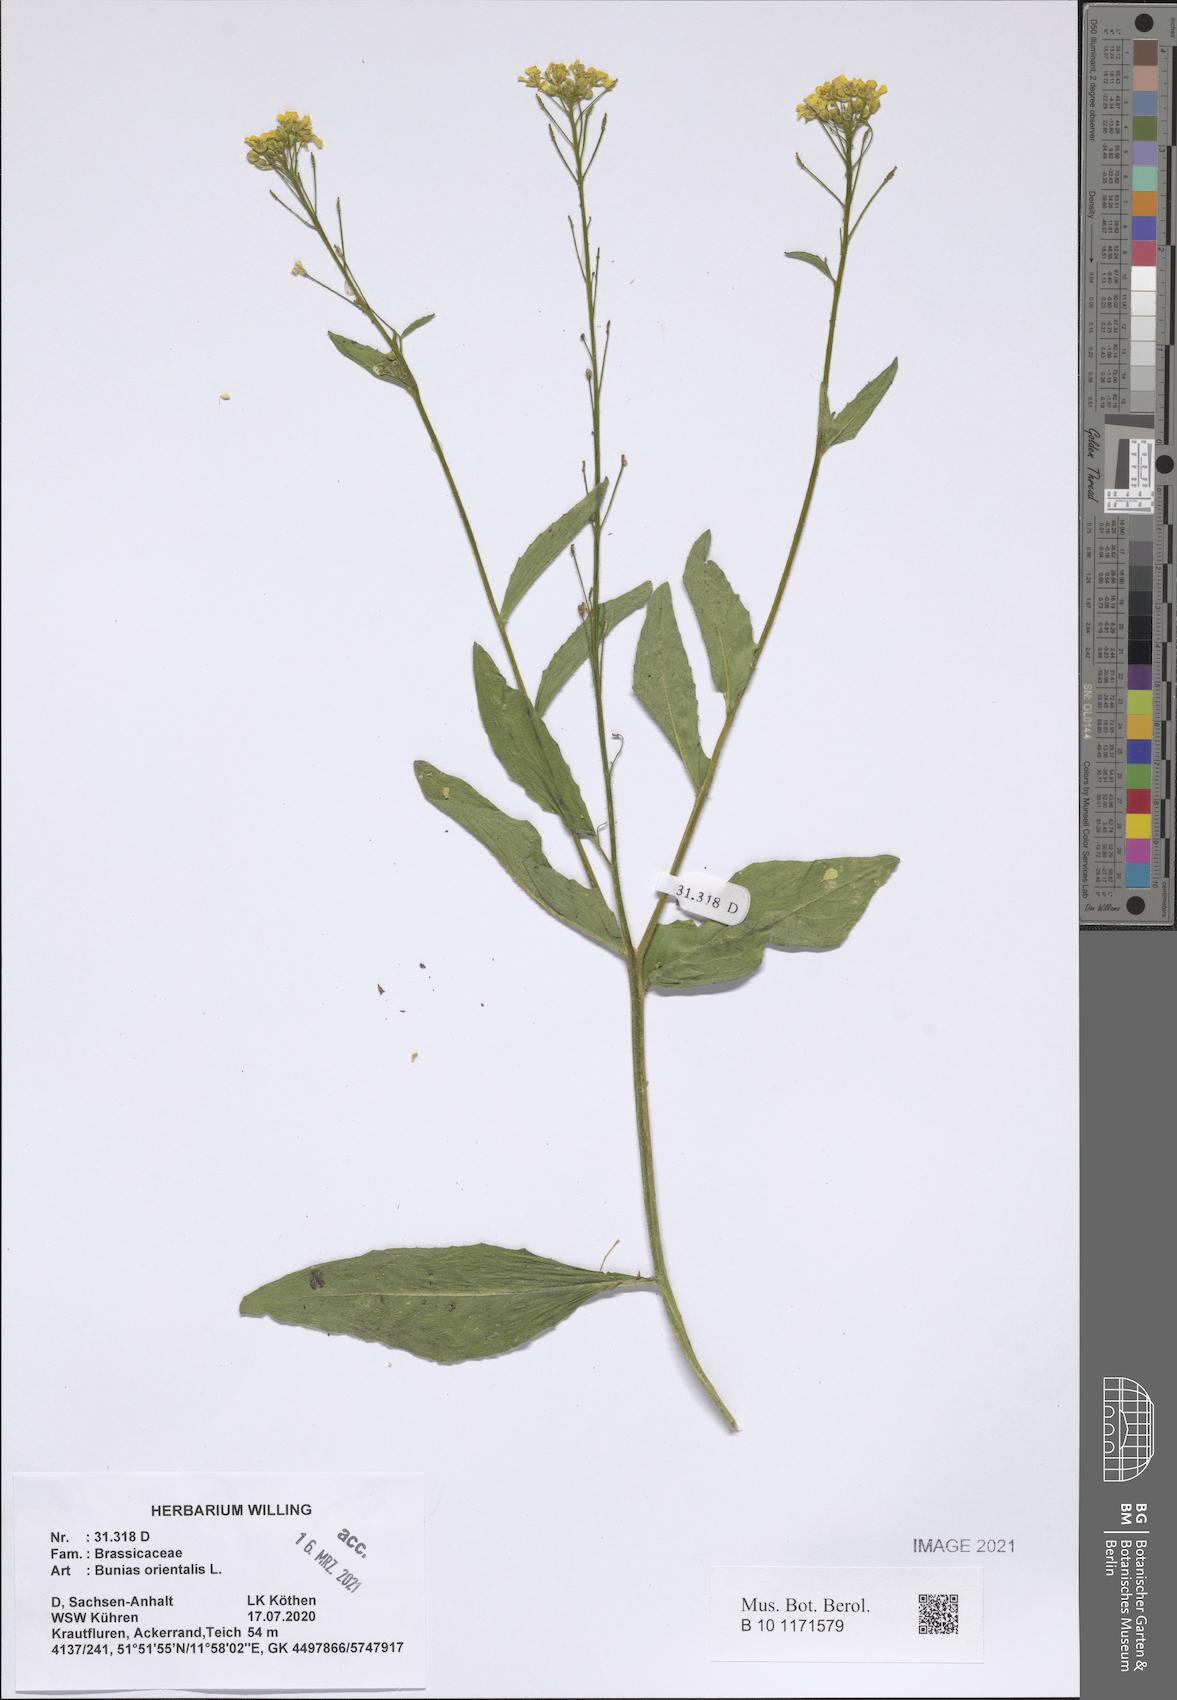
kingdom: Plantae
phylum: Tracheophyta
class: Magnoliopsida
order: Brassicales
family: Brassicaceae
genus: Bunias
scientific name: Bunias orientalis
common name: Warty-cabbage
